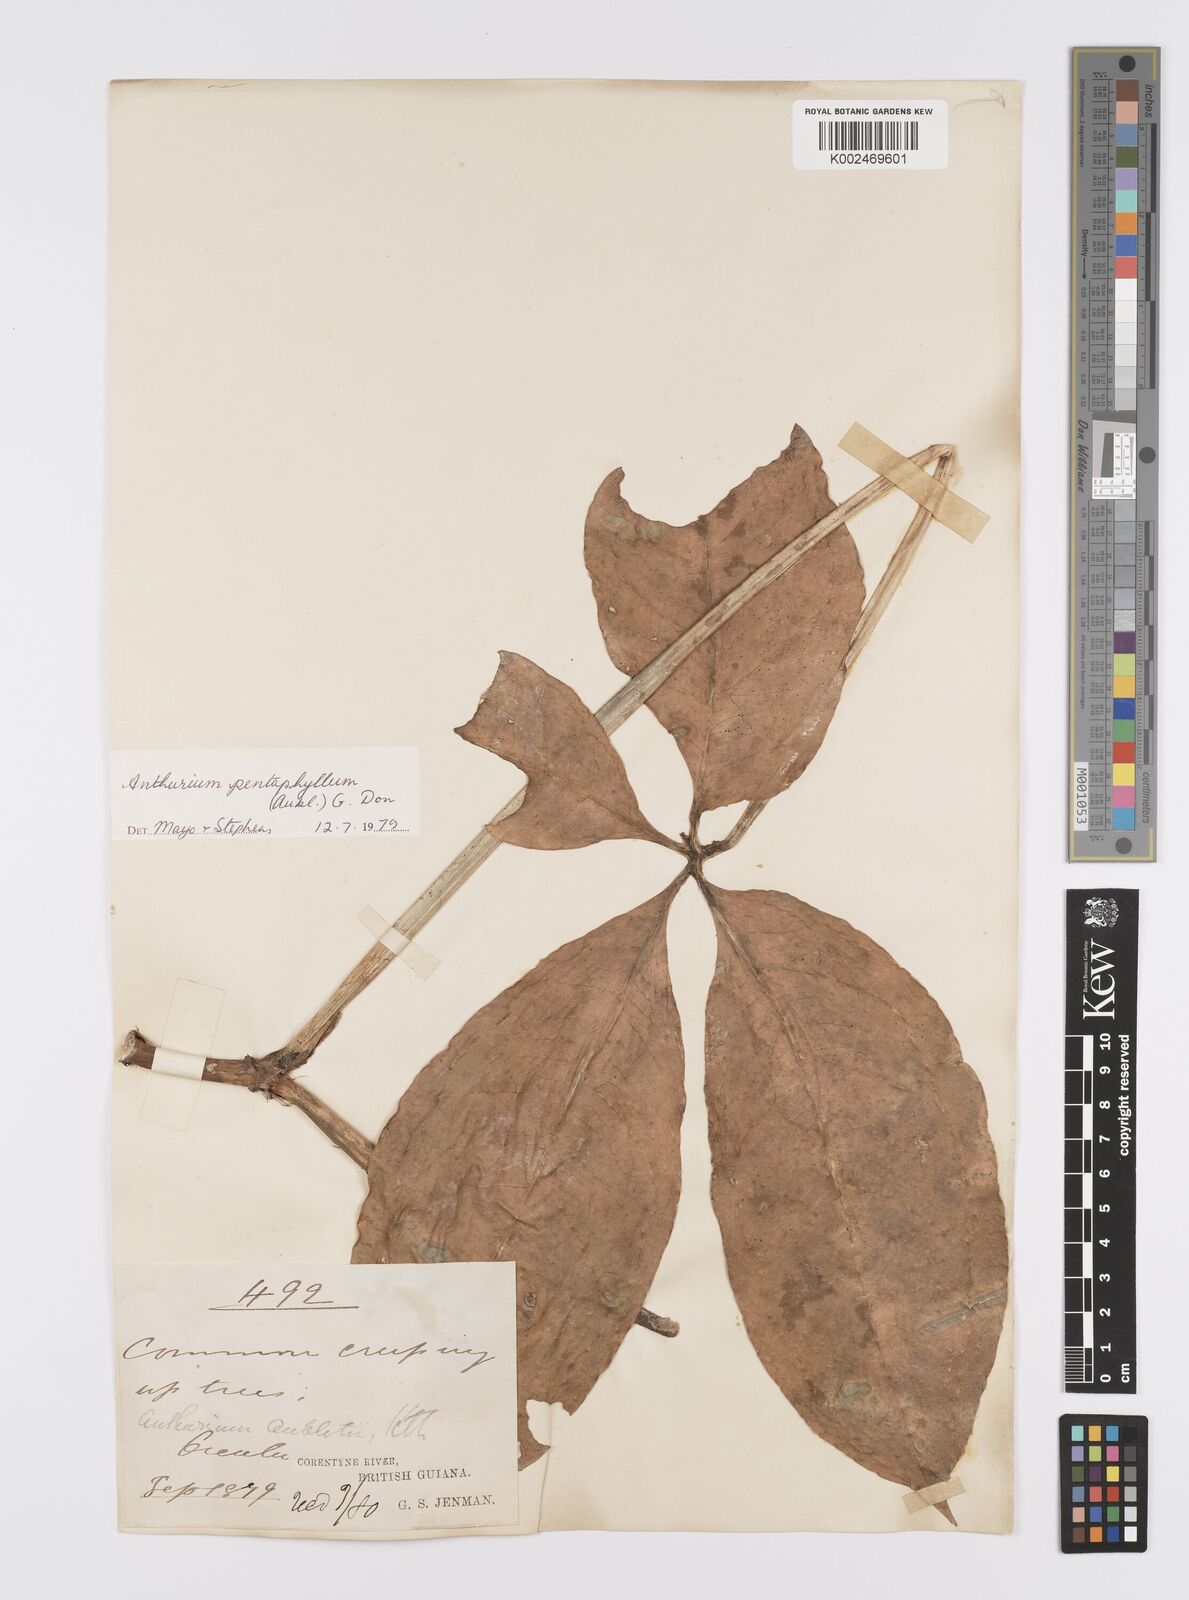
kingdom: Plantae
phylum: Tracheophyta
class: Liliopsida
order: Alismatales
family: Araceae
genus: Anthurium
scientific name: Anthurium pentaphyllum
